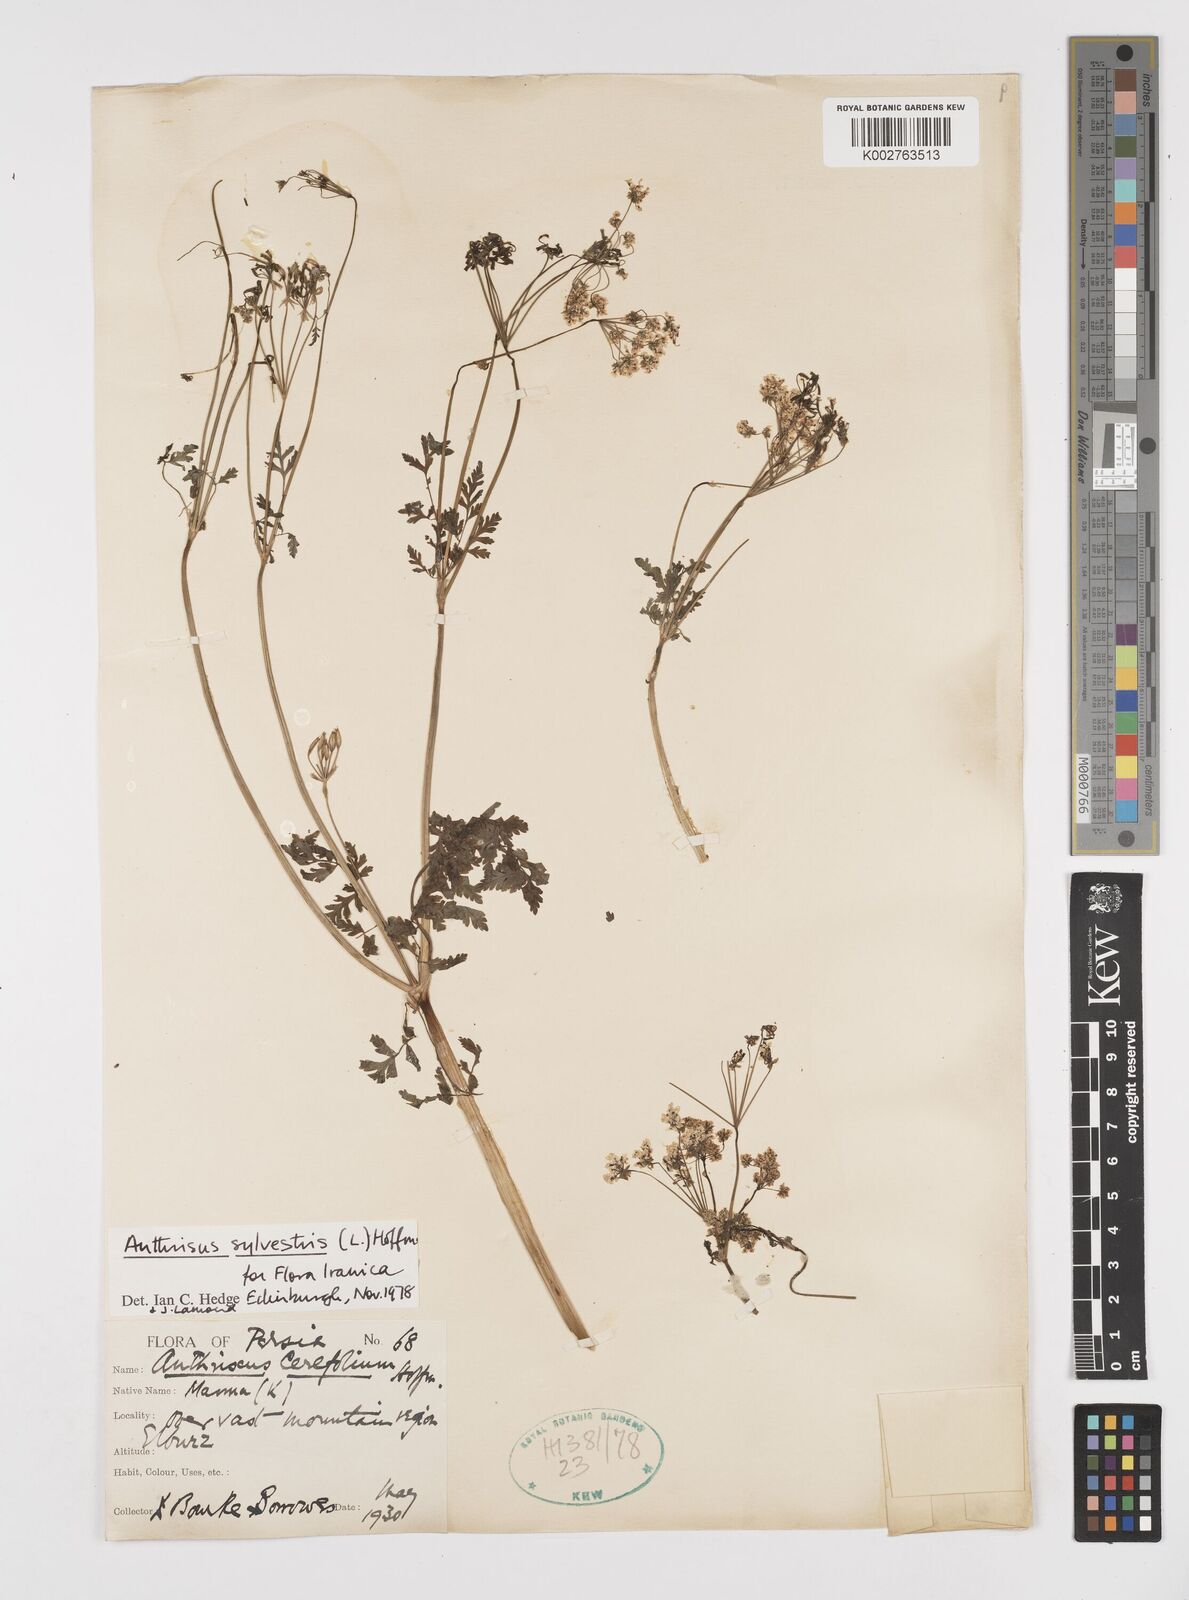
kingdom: Plantae
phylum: Tracheophyta
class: Magnoliopsida
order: Apiales
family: Apiaceae
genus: Anthriscus
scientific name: Anthriscus sylvestris
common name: Cow parsley
